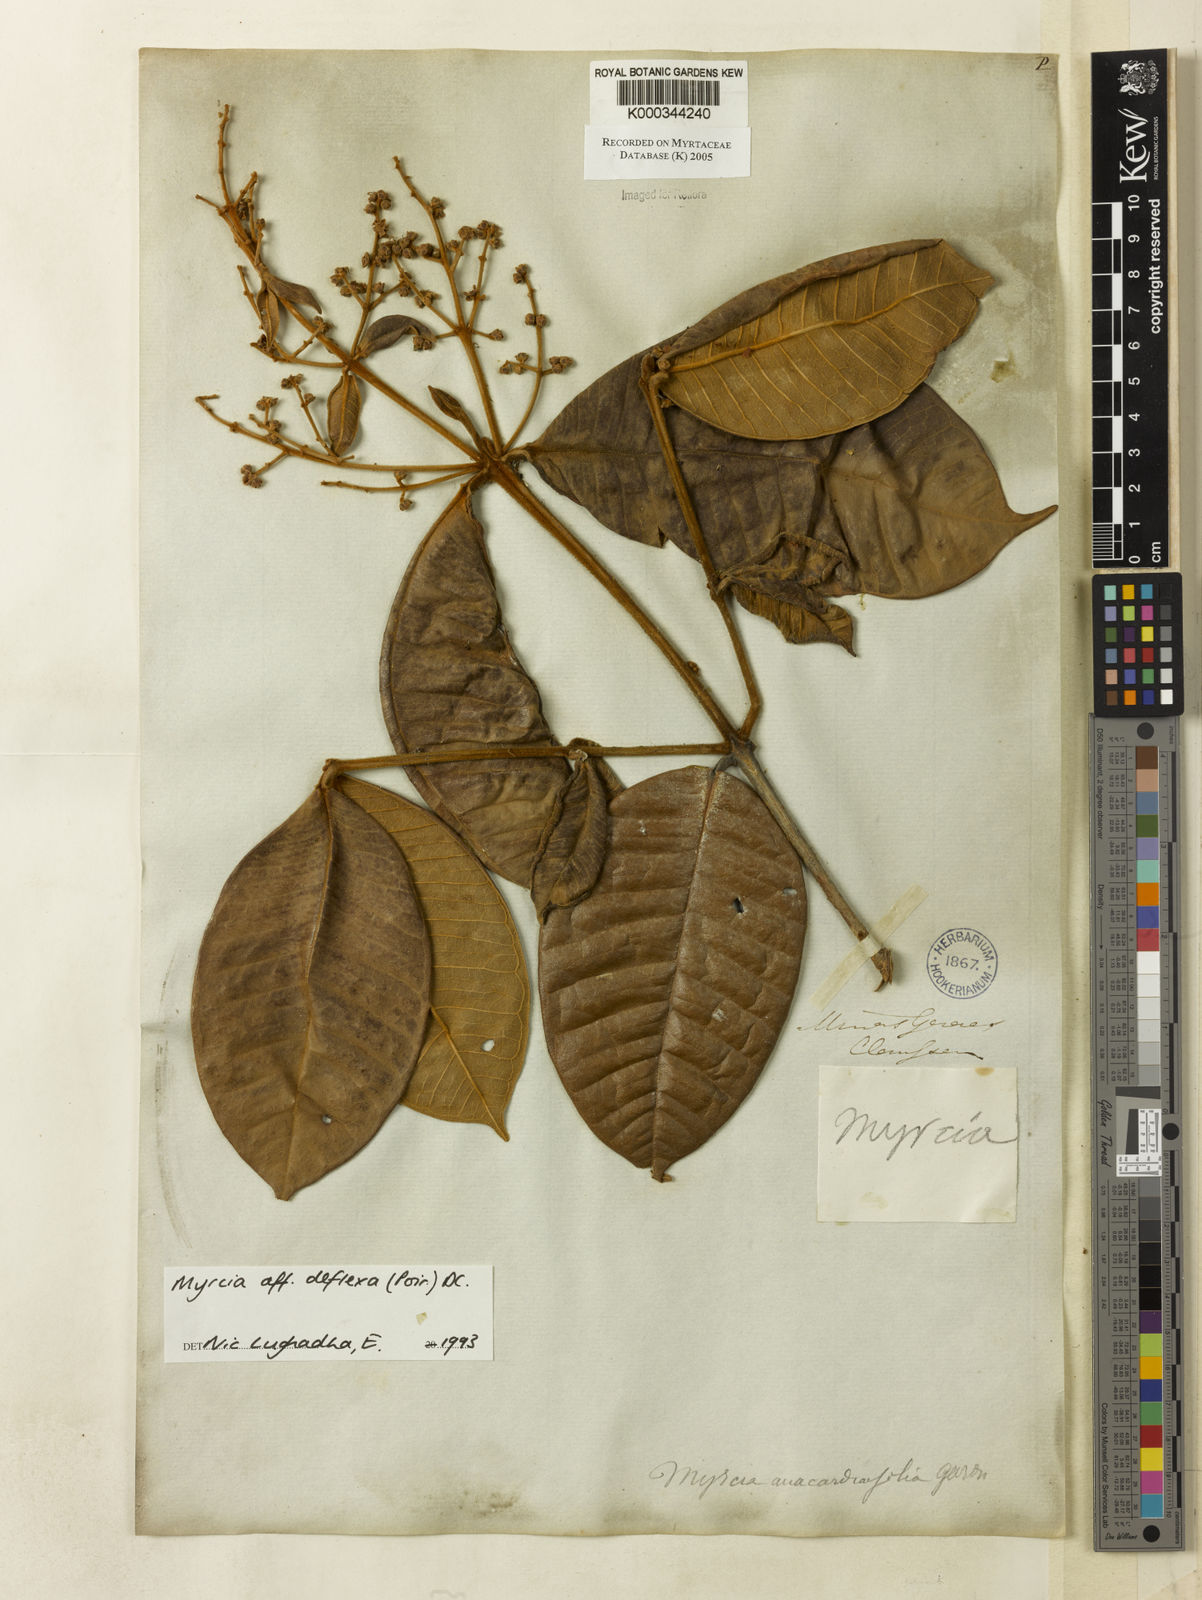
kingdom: Plantae
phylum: Tracheophyta
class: Magnoliopsida
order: Myrtales
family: Myrtaceae
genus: Myrcia
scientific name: Myrcia deflexa
